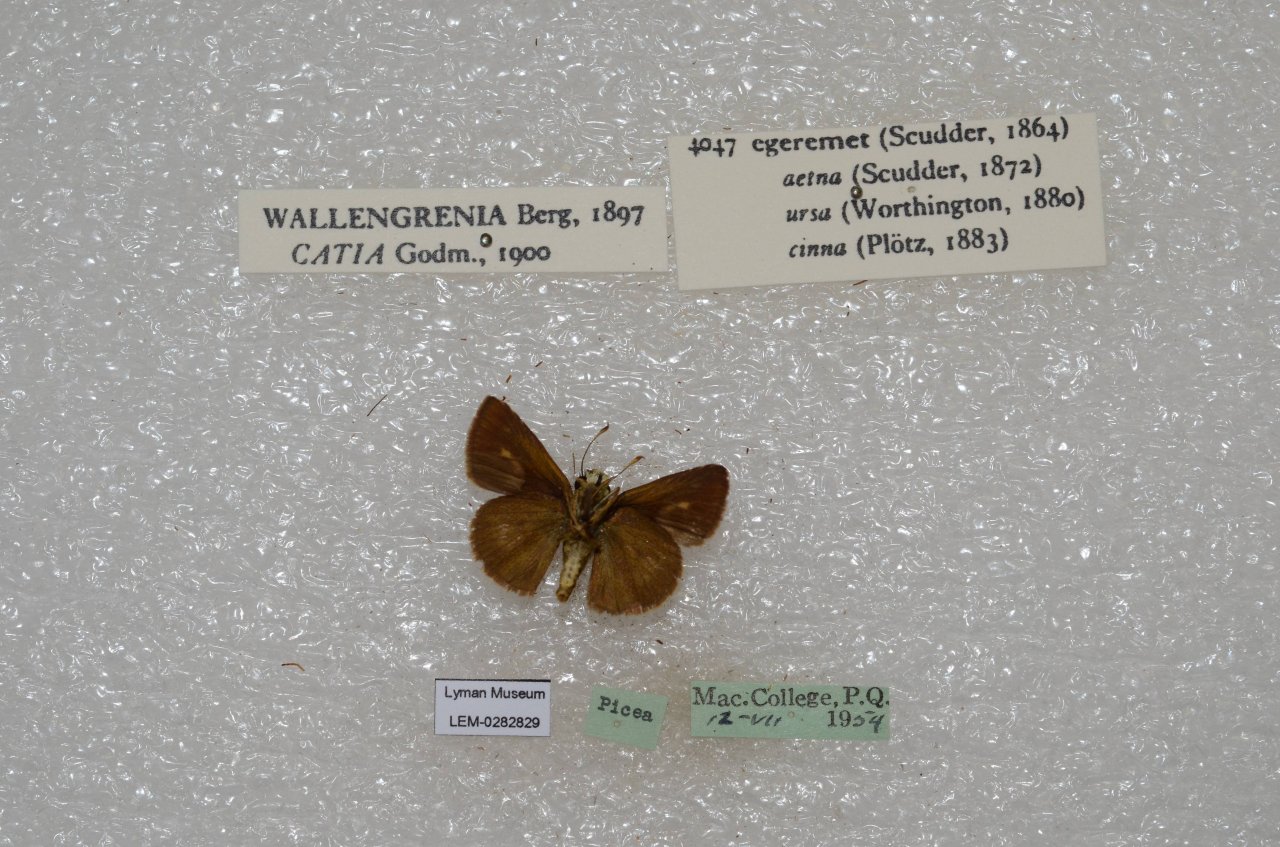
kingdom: Animalia
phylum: Arthropoda
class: Insecta
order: Lepidoptera
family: Hesperiidae
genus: Polites
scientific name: Polites egeremet
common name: Northern Broken-Dash
